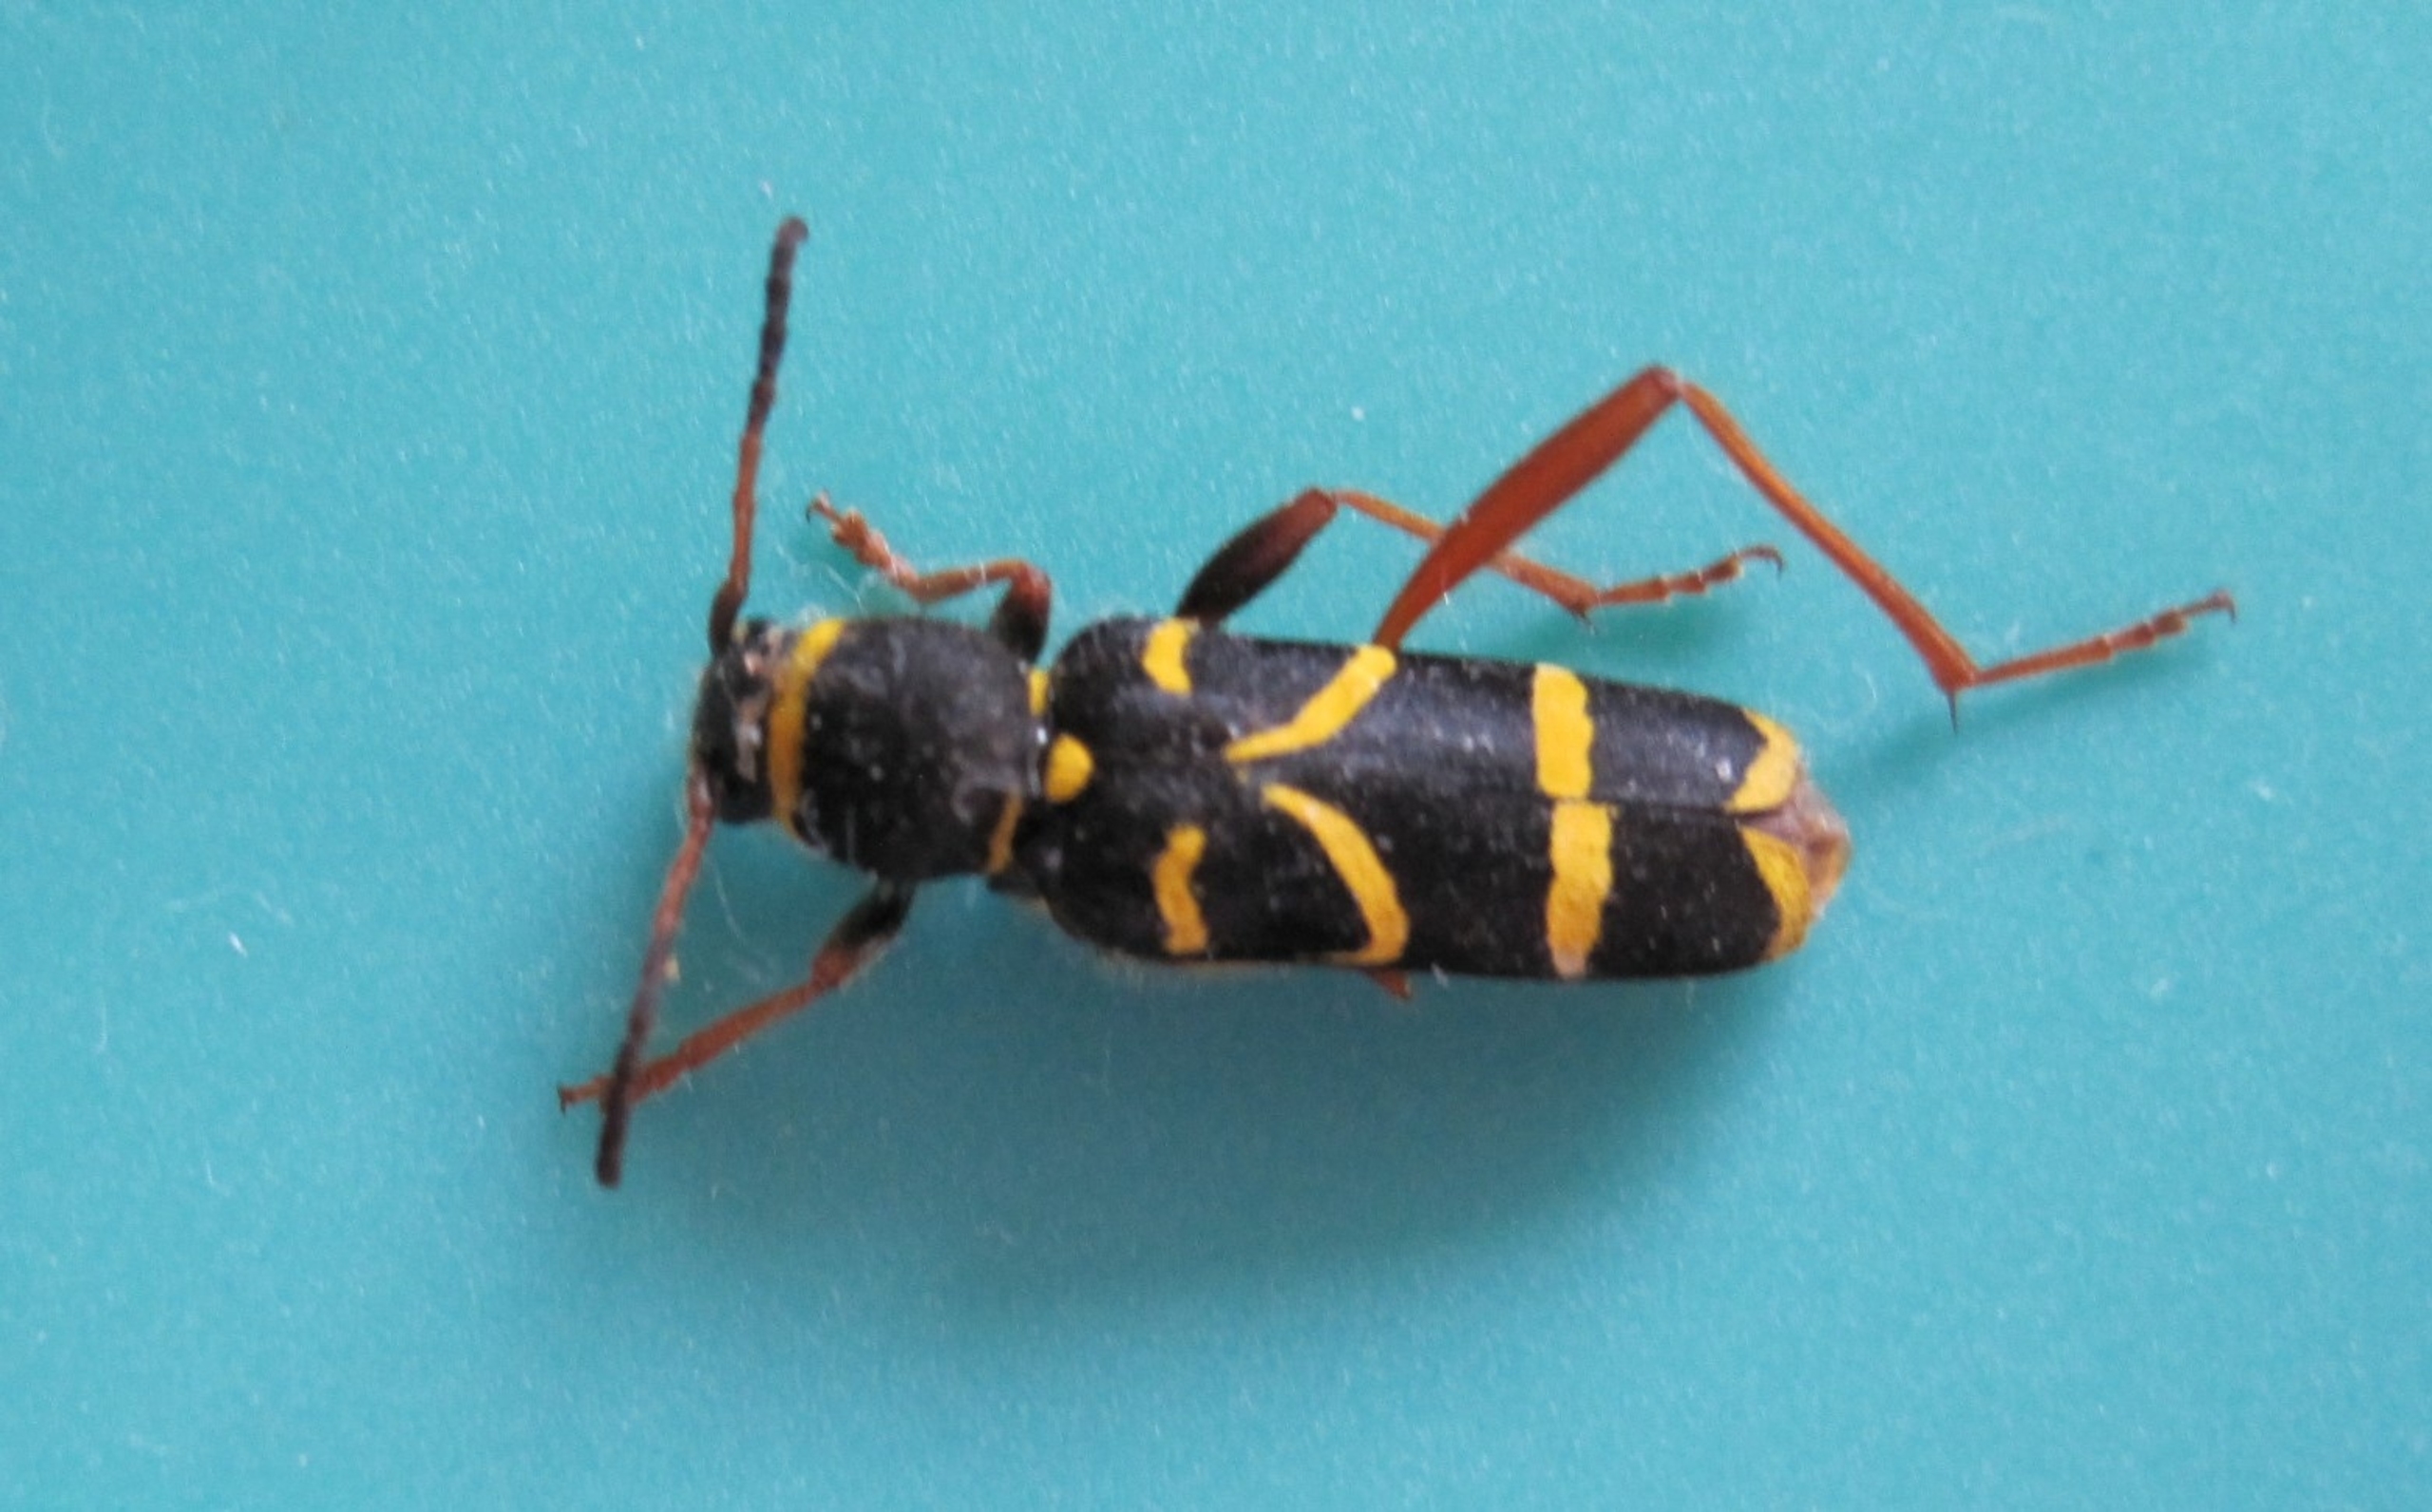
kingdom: Animalia
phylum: Arthropoda
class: Insecta
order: Coleoptera
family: Cerambycidae
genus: Clytus
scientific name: Clytus arietis
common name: Lille hvepsebuk
